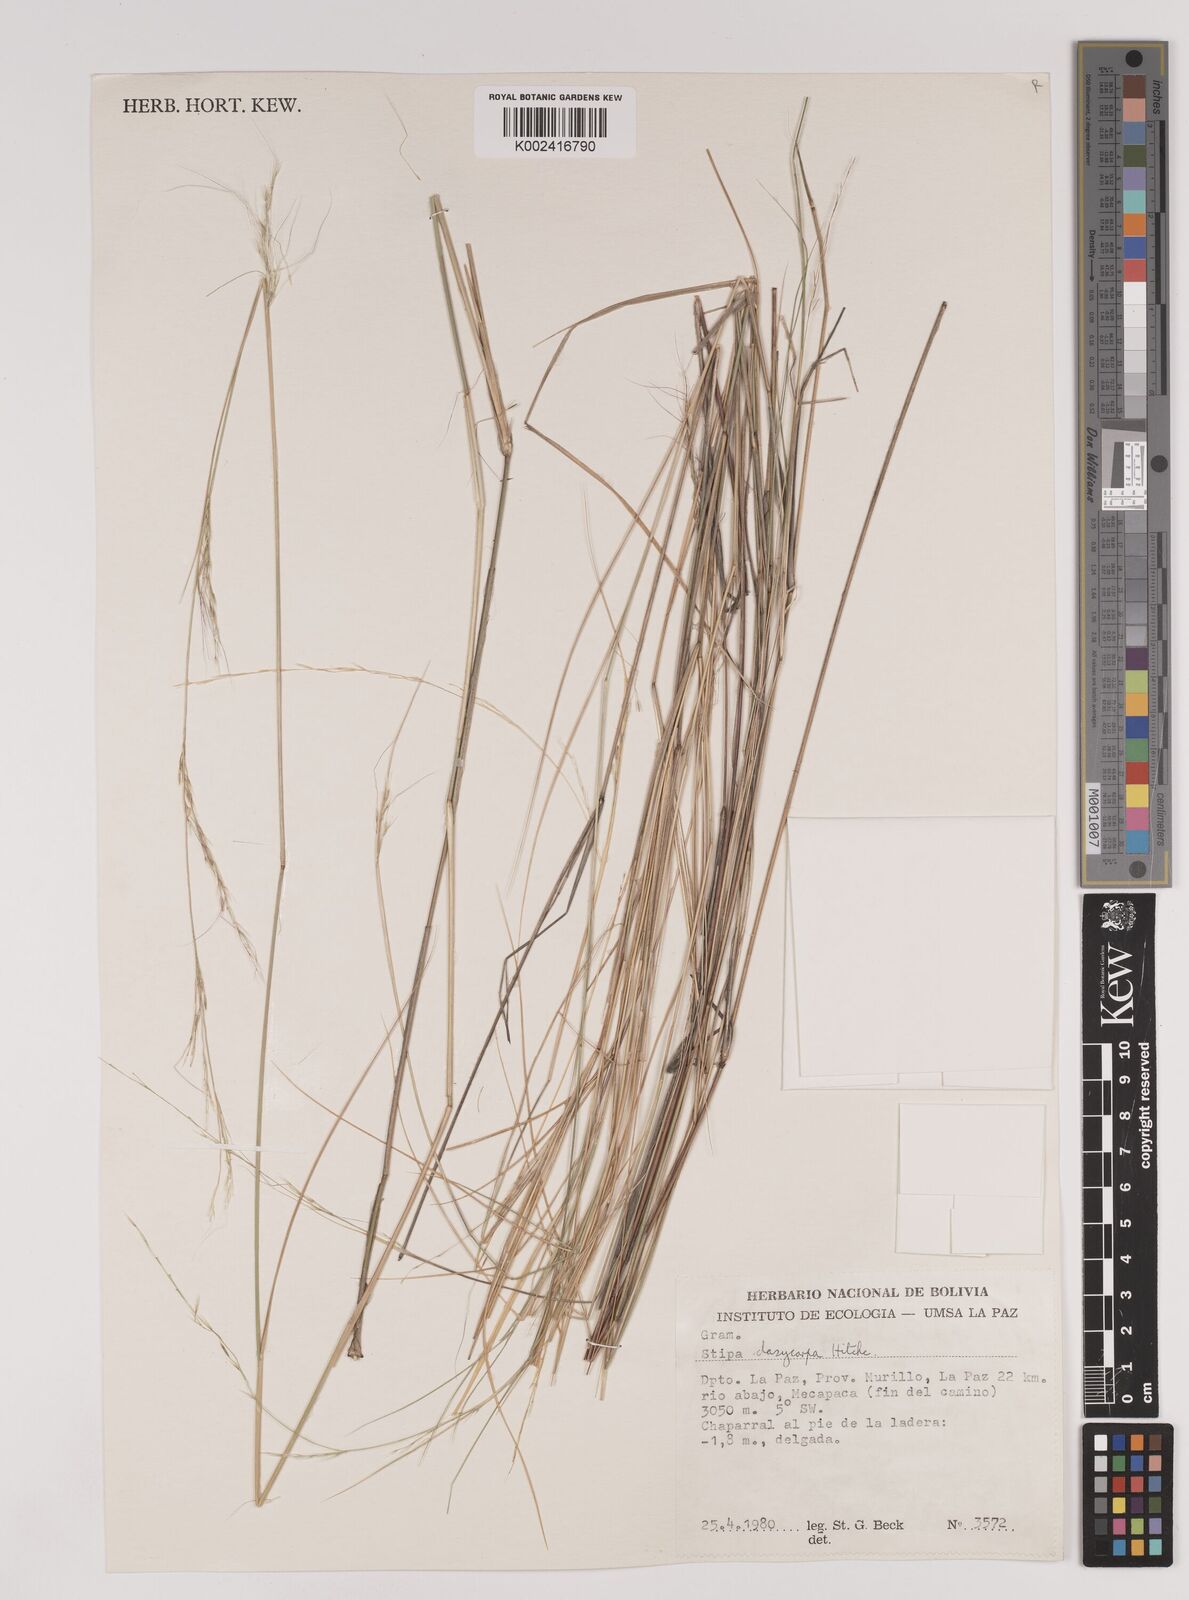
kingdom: Plantae
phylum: Tracheophyta
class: Liliopsida
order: Poales
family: Poaceae
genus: Stipa
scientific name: Stipa illimanica
